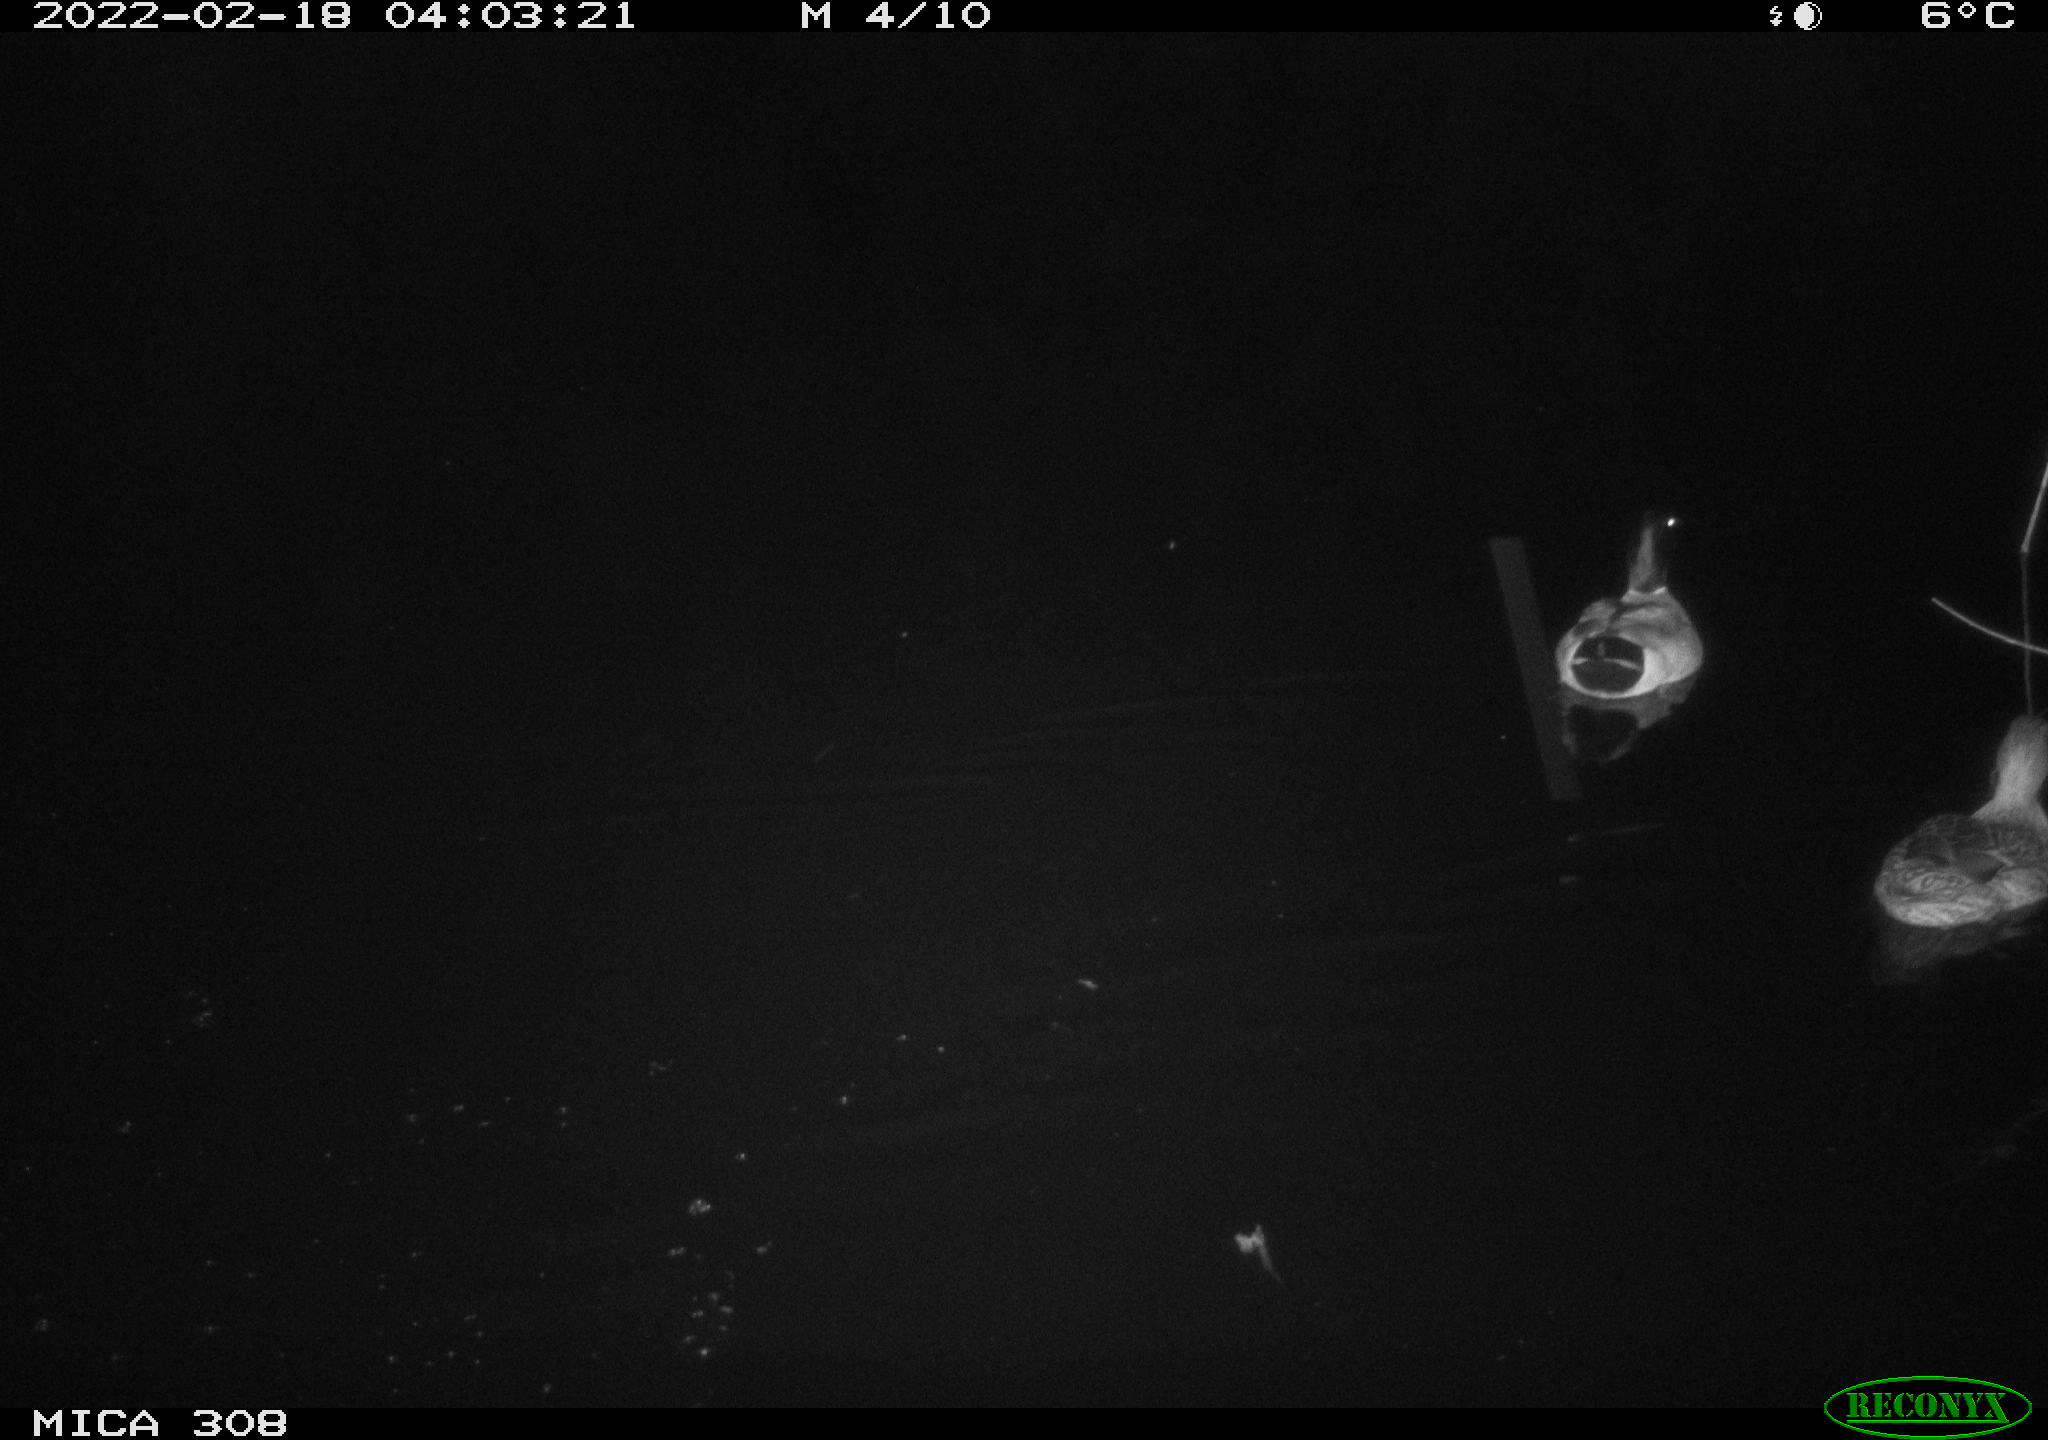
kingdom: Animalia
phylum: Chordata
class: Aves
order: Anseriformes
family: Anatidae
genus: Anas
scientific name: Anas platyrhynchos
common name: Mallard
